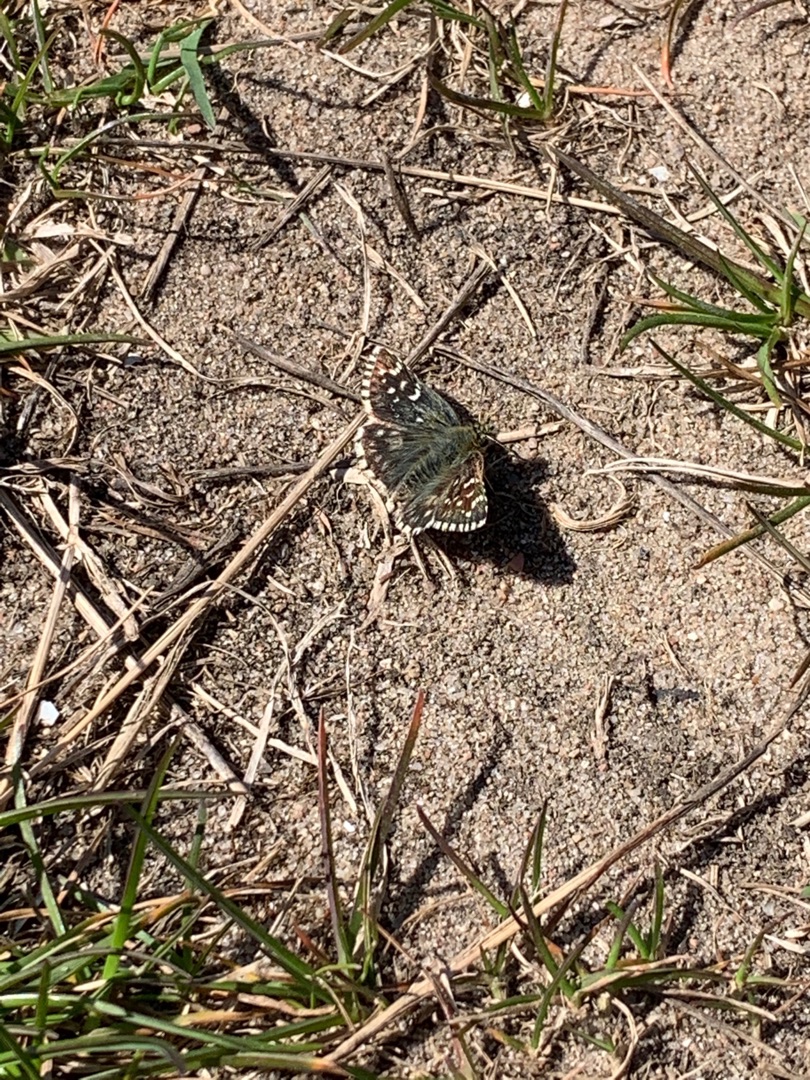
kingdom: Animalia
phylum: Arthropoda
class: Insecta
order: Lepidoptera
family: Hesperiidae
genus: Pyrgus
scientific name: Pyrgus armoricanus
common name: Fransk bredpande
